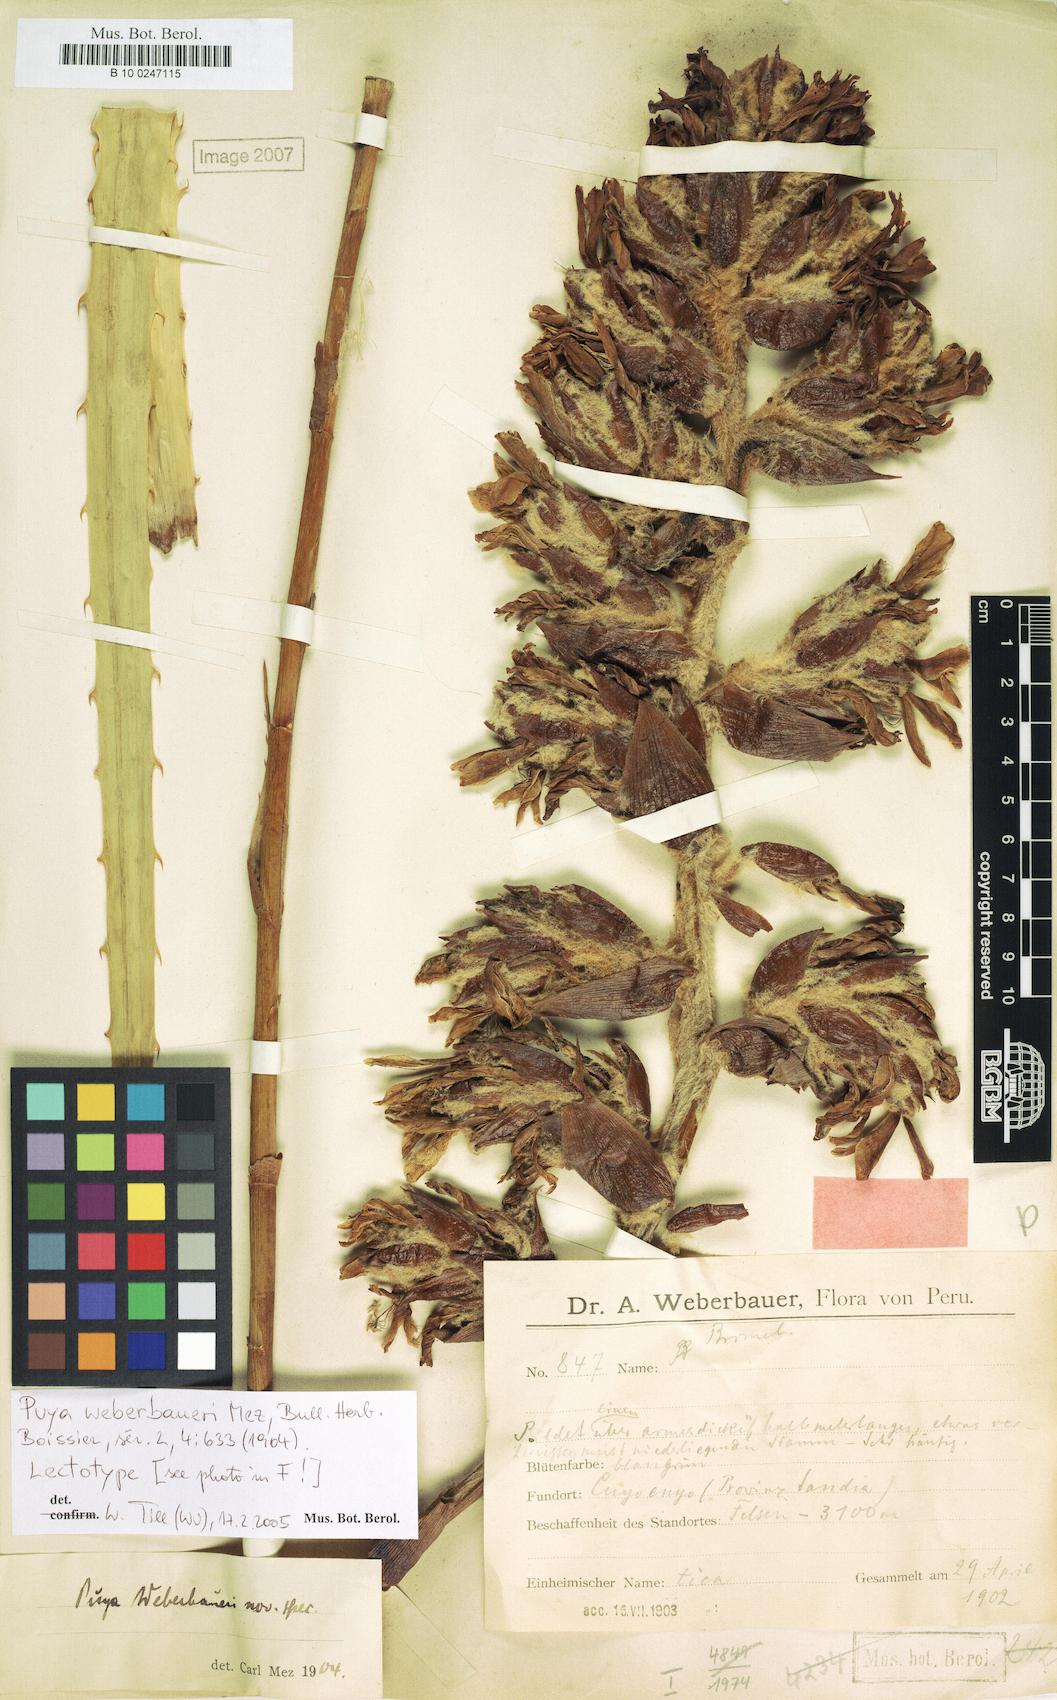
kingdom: Plantae
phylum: Tracheophyta
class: Liliopsida
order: Poales
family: Bromeliaceae
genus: Puya
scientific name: Puya weberbaueri
